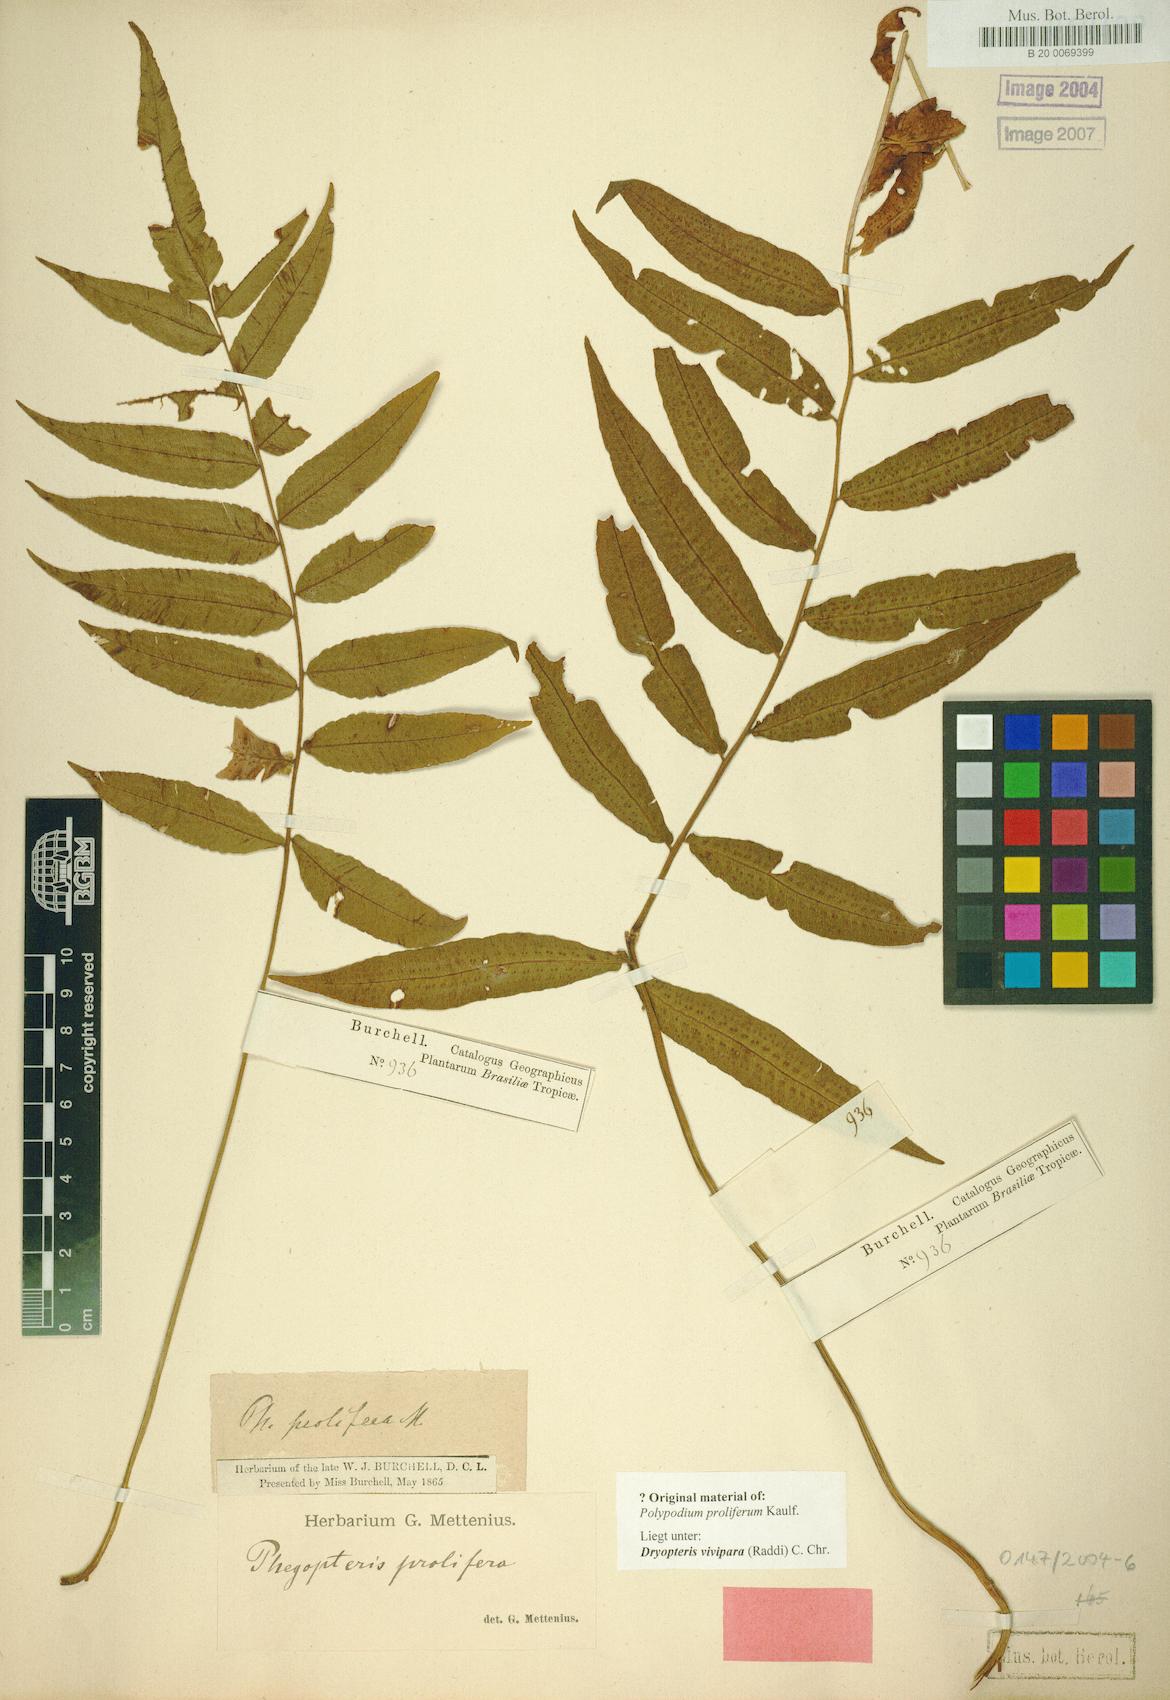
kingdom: Plantae
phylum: Tracheophyta
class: Polypodiopsida
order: Polypodiales
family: Thelypteridaceae
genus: Goniopteris
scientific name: Goniopteris vivipara
